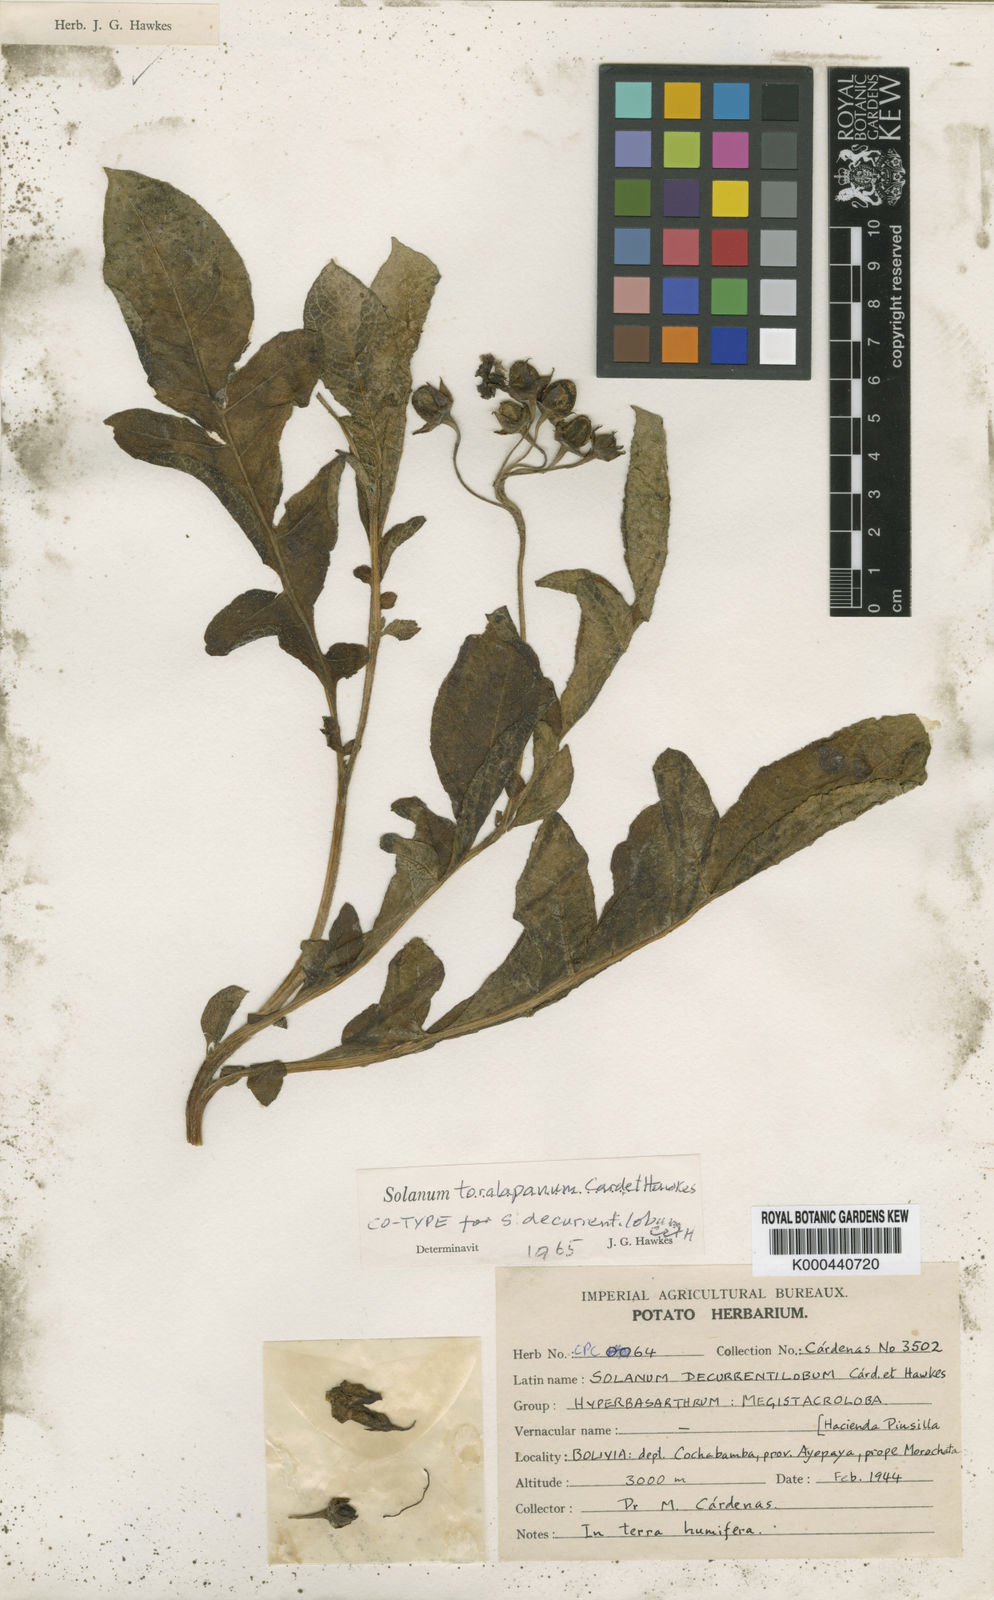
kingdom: Plantae
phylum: Tracheophyta
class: Magnoliopsida
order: Solanales
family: Solanaceae
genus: Solanum
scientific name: Solanum
